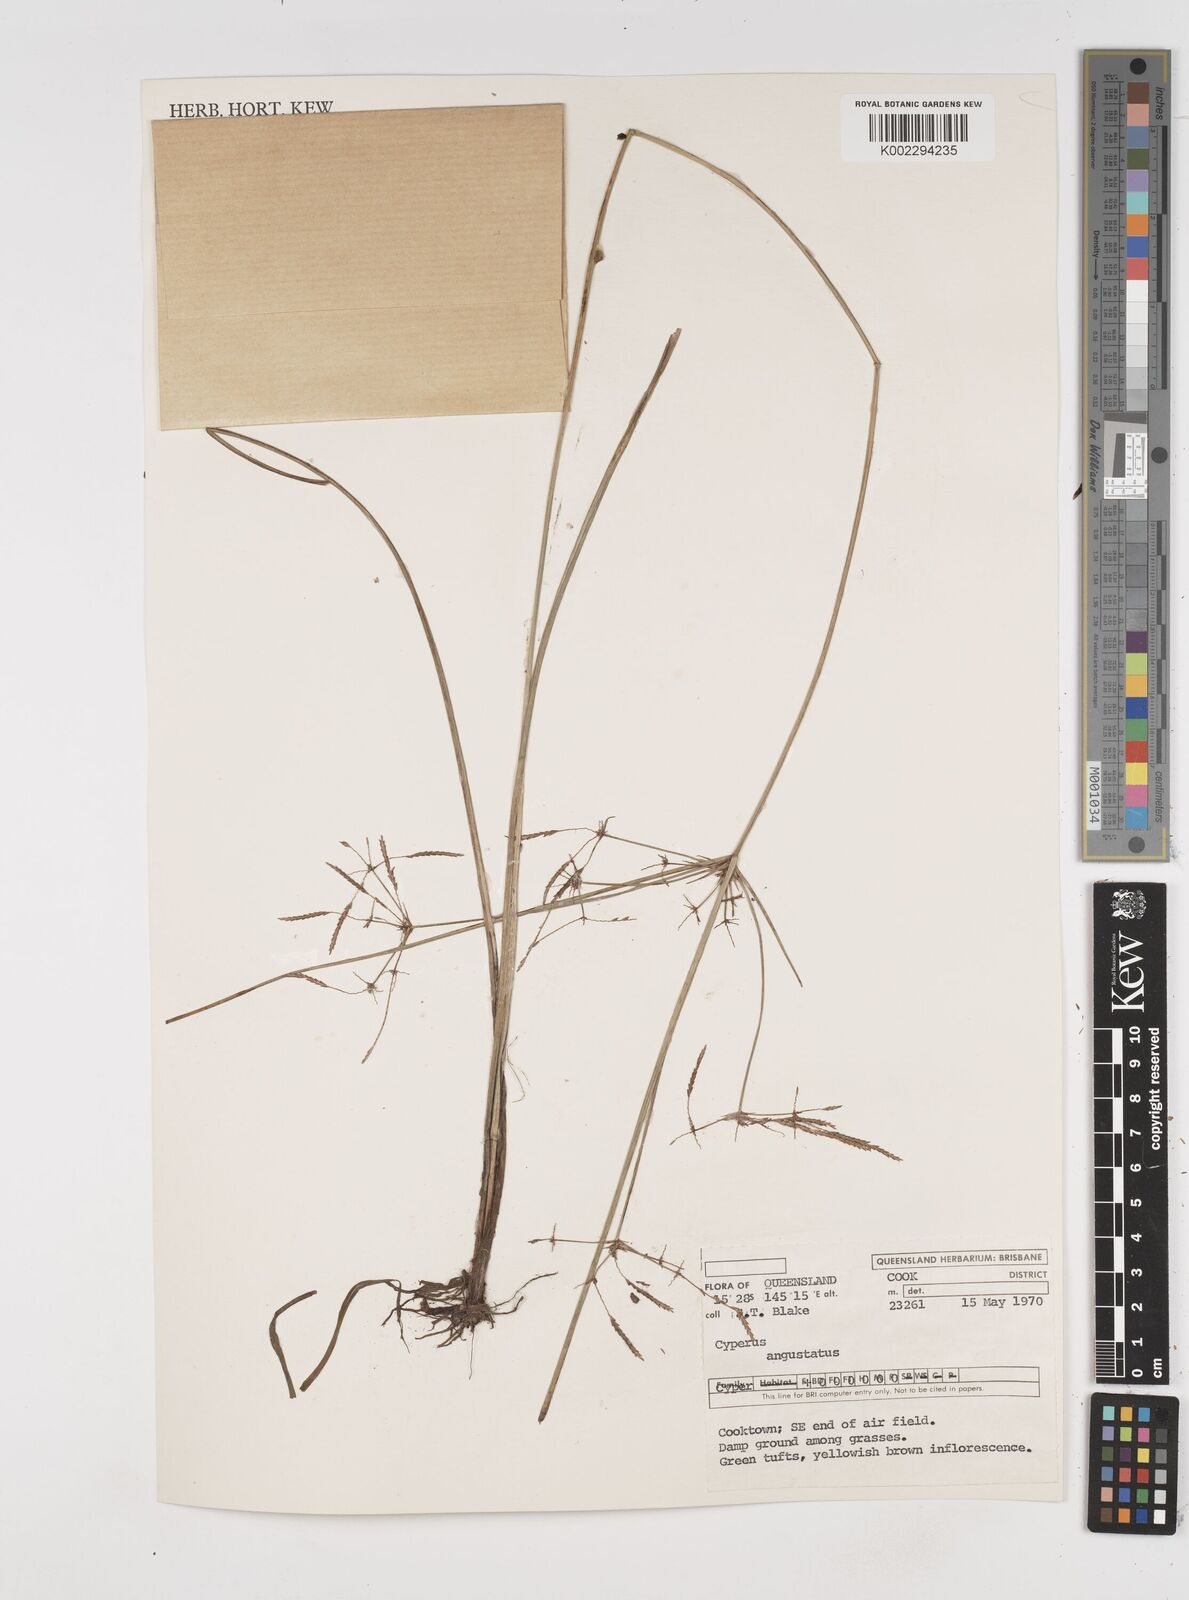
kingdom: Plantae
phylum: Tracheophyta
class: Liliopsida
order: Poales
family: Cyperaceae
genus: Cyperus
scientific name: Cyperus angustatus
